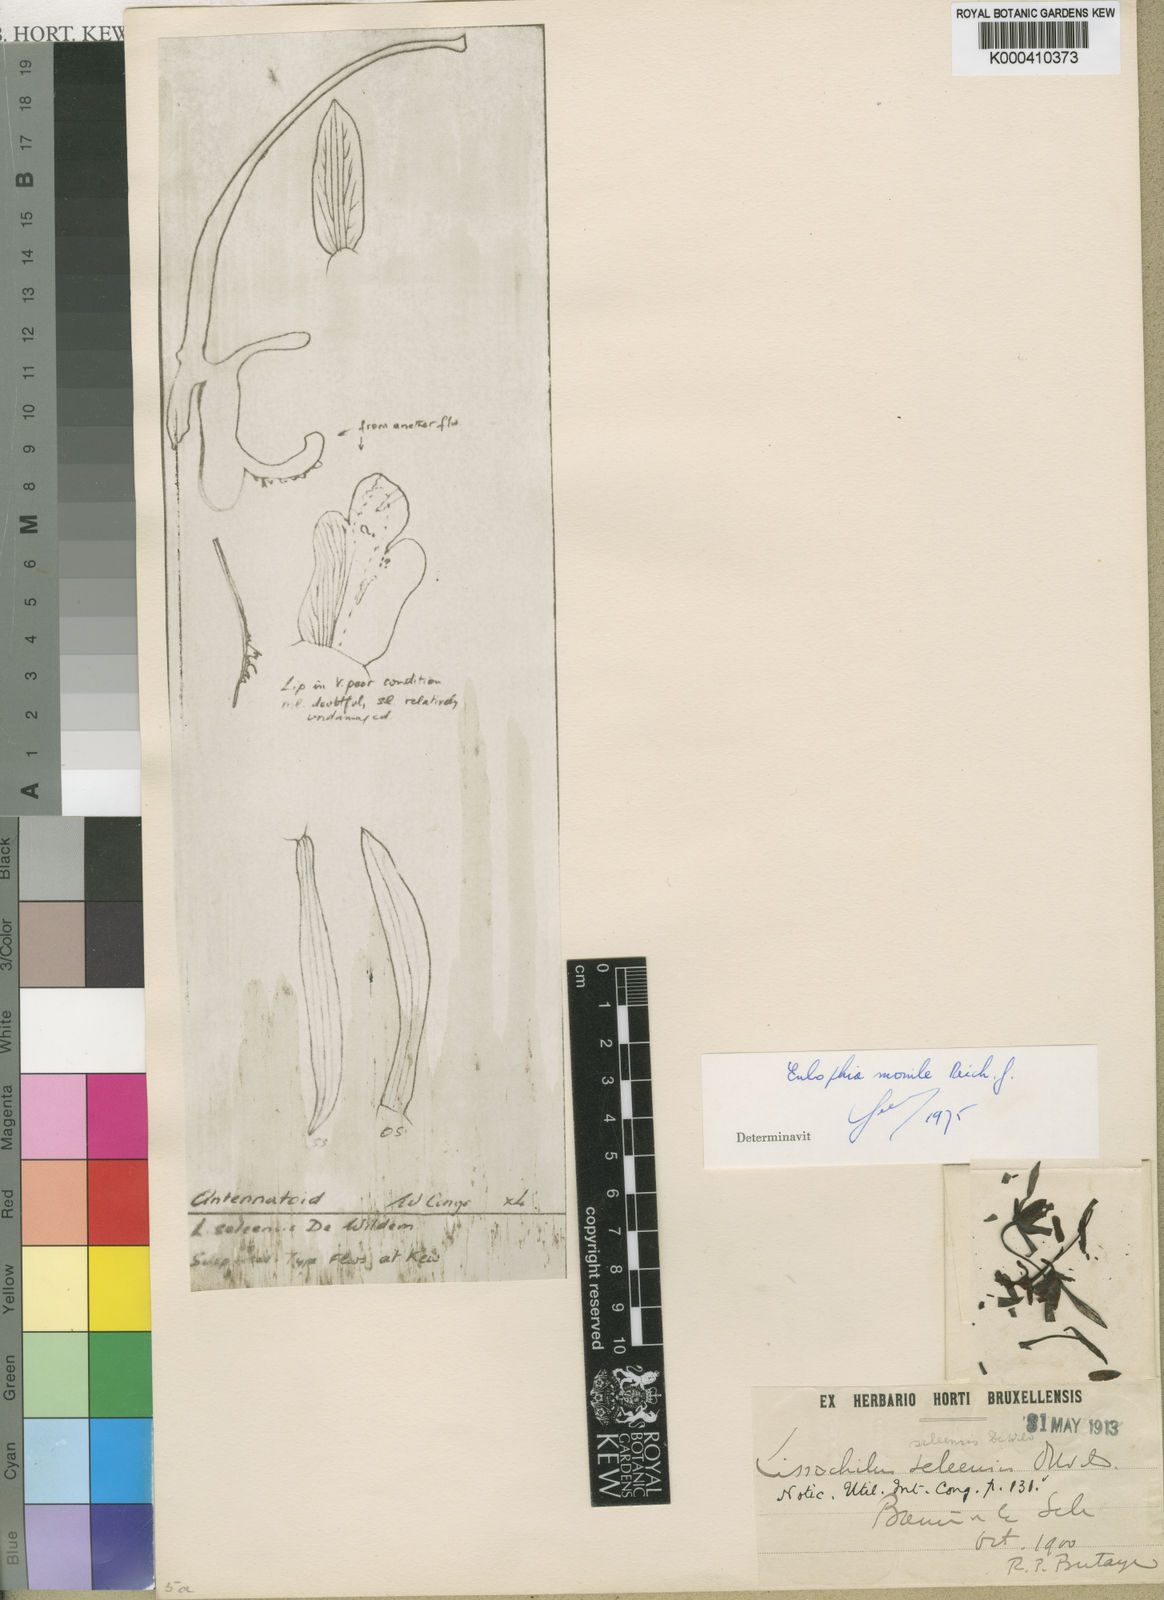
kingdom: Plantae
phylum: Tracheophyta
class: Liliopsida
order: Asparagales
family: Orchidaceae
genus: Eulophia
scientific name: Eulophia seleensis
